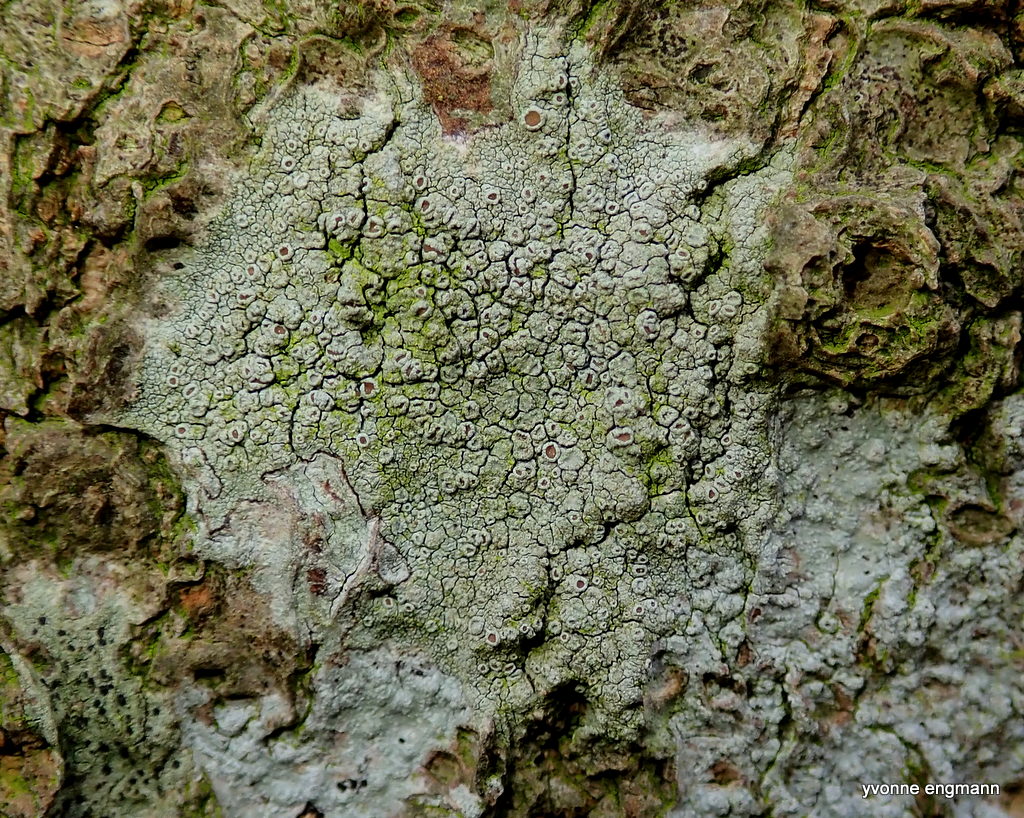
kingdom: Fungi
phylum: Ascomycota
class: Lecanoromycetes
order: Lecanorales
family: Lecanoraceae
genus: Lecanora
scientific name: Lecanora chlarotera
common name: brun kantskivelav
